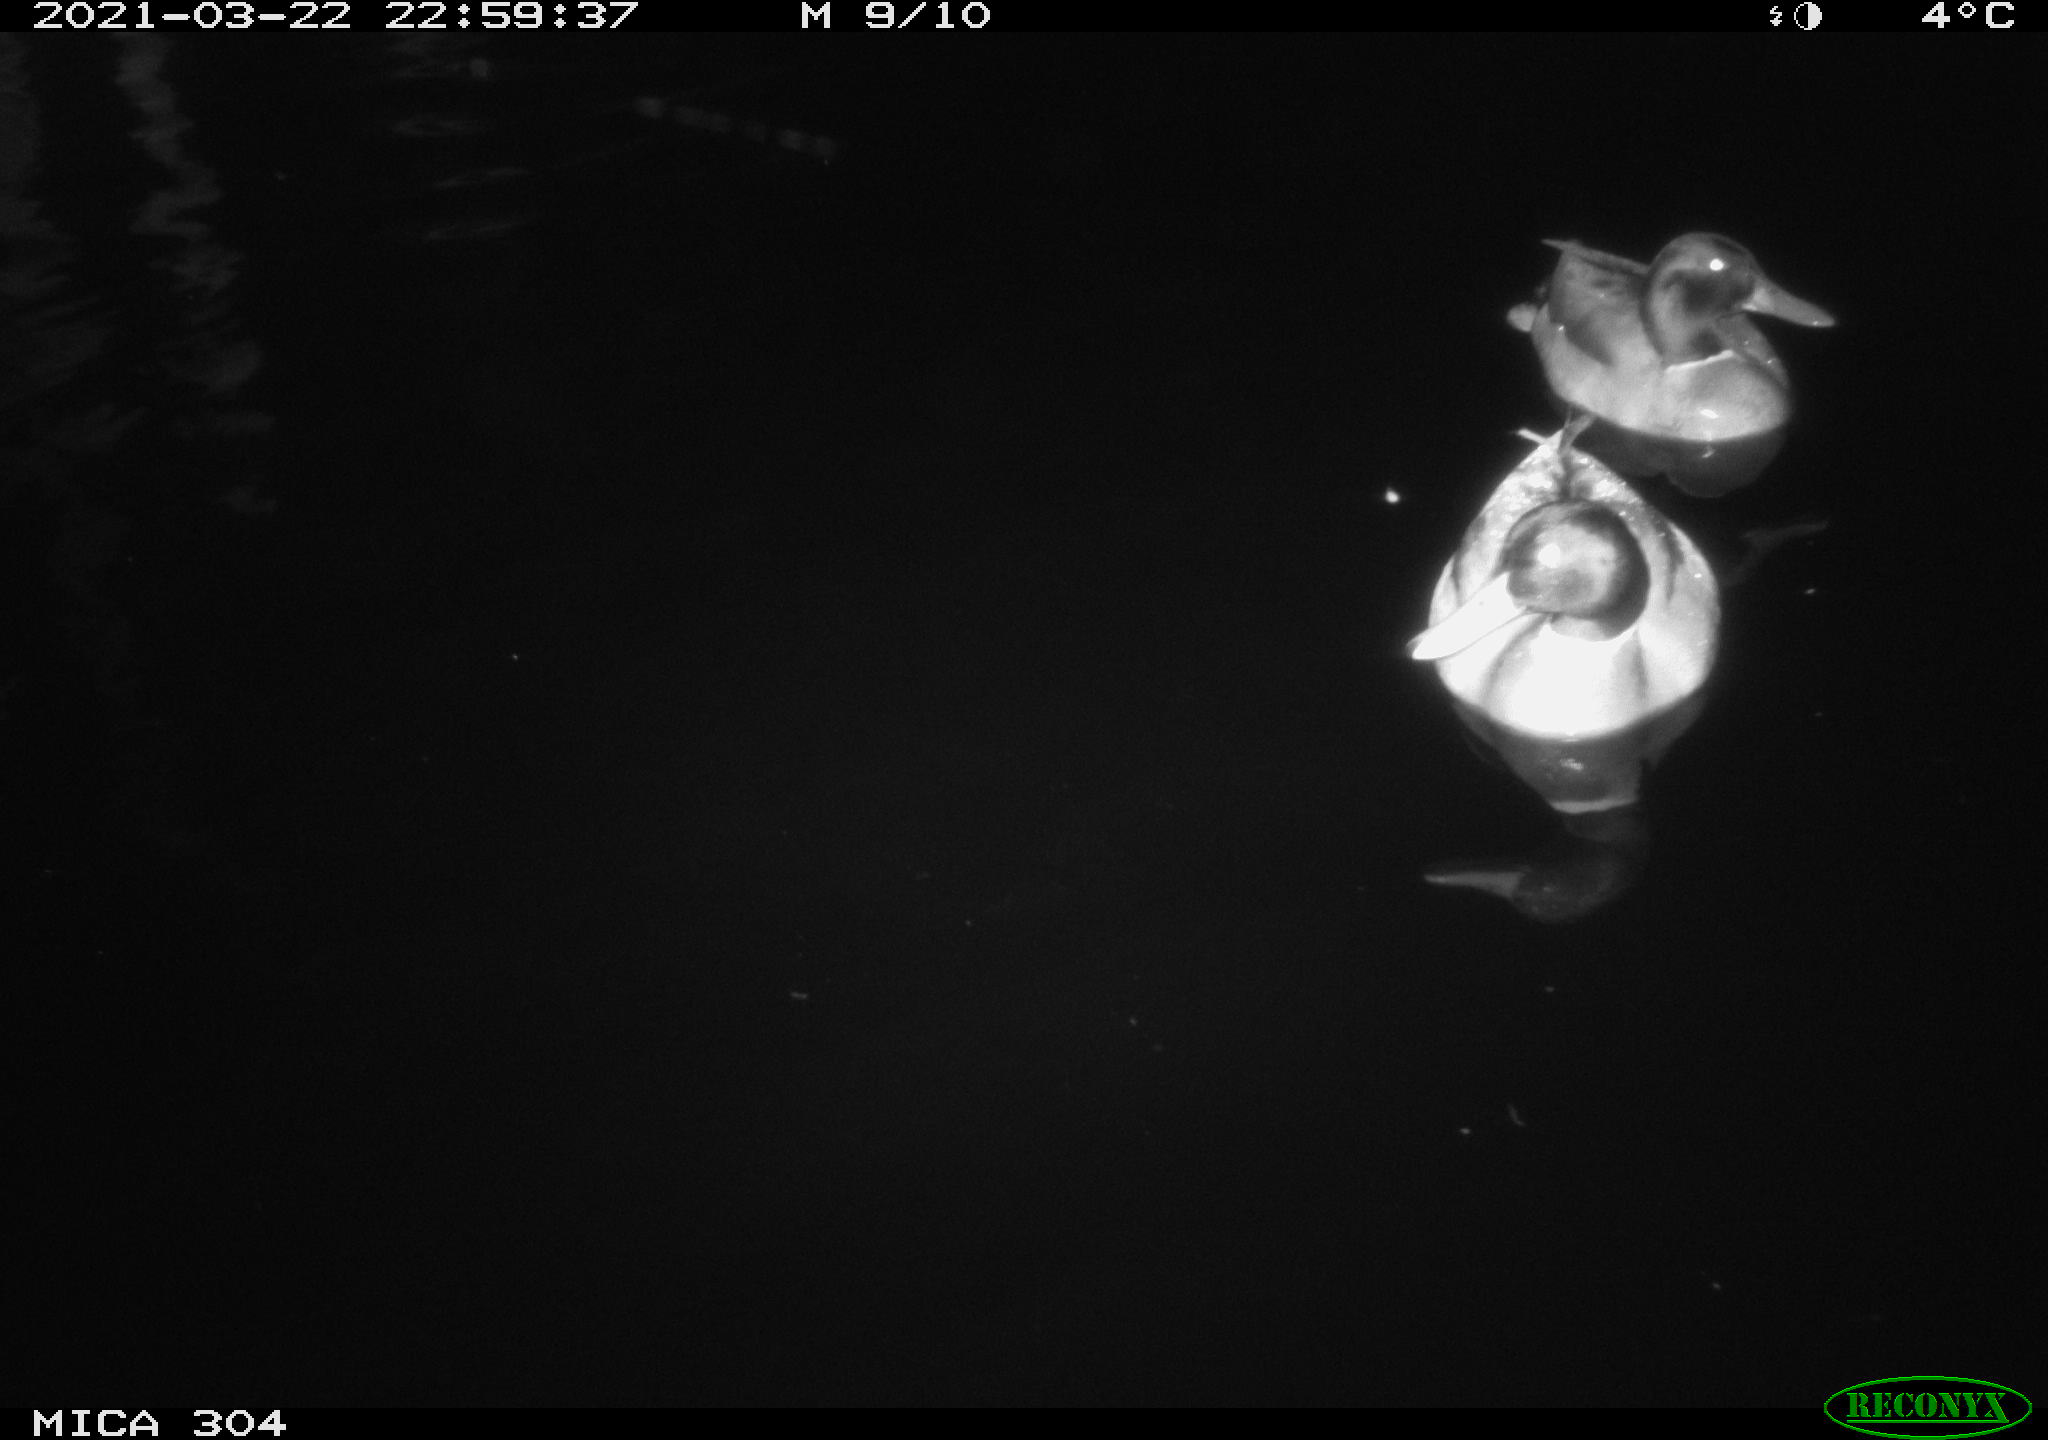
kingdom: Animalia
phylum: Chordata
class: Aves
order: Anseriformes
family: Anatidae
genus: Anas
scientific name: Anas platyrhynchos
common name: Mallard
